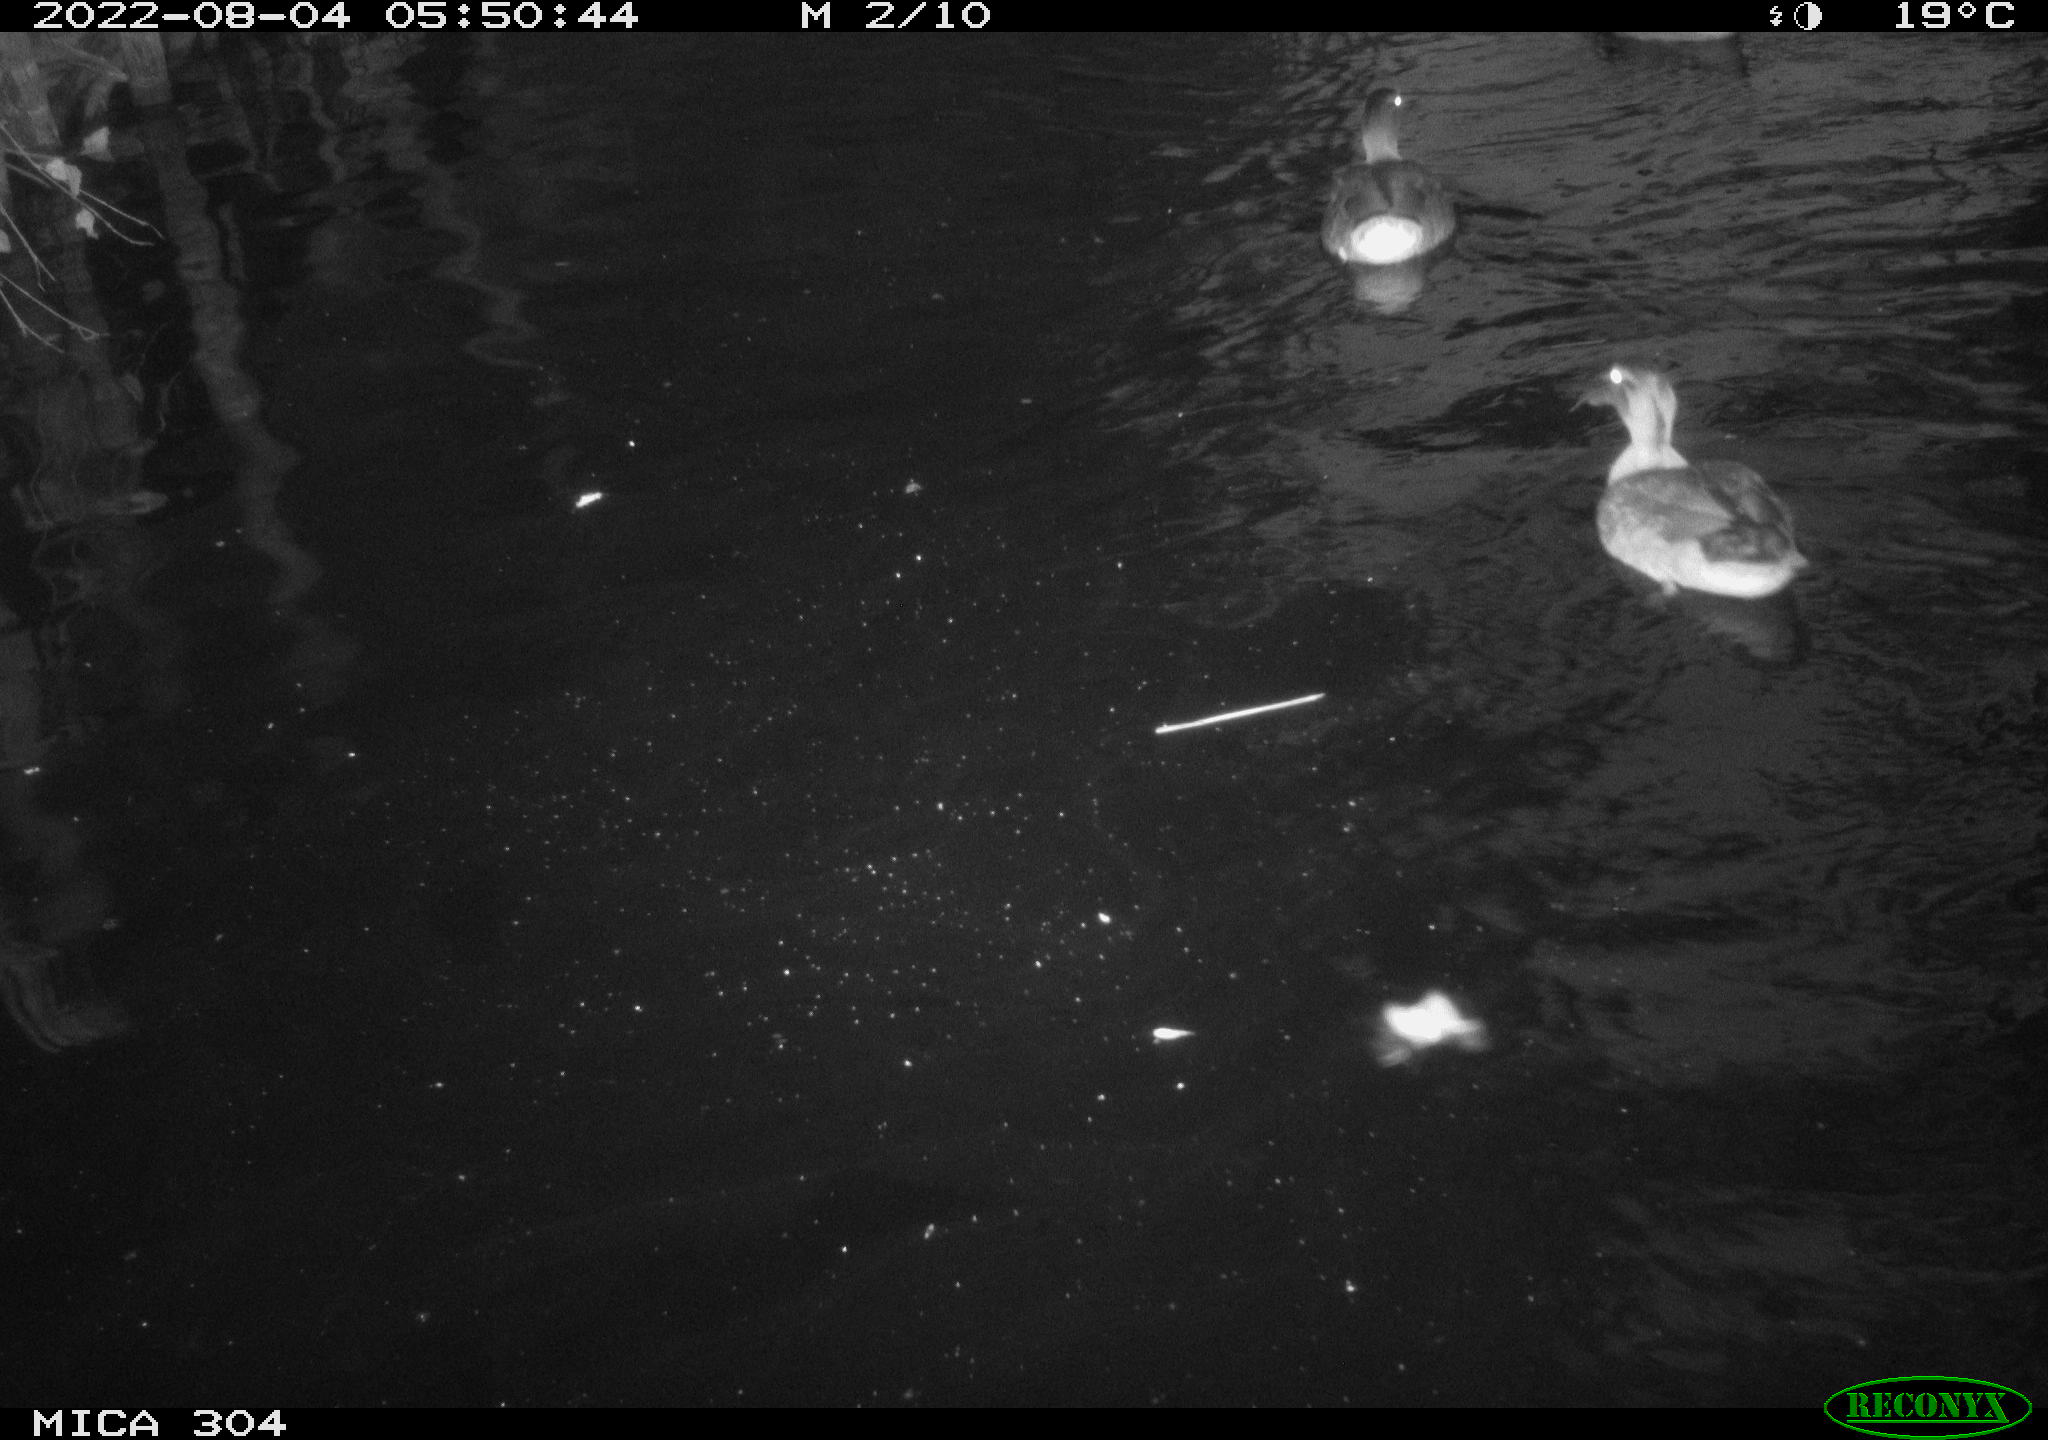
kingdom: Animalia
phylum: Chordata
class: Aves
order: Anseriformes
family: Anatidae
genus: Anas
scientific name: Anas platyrhynchos
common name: Mallard
